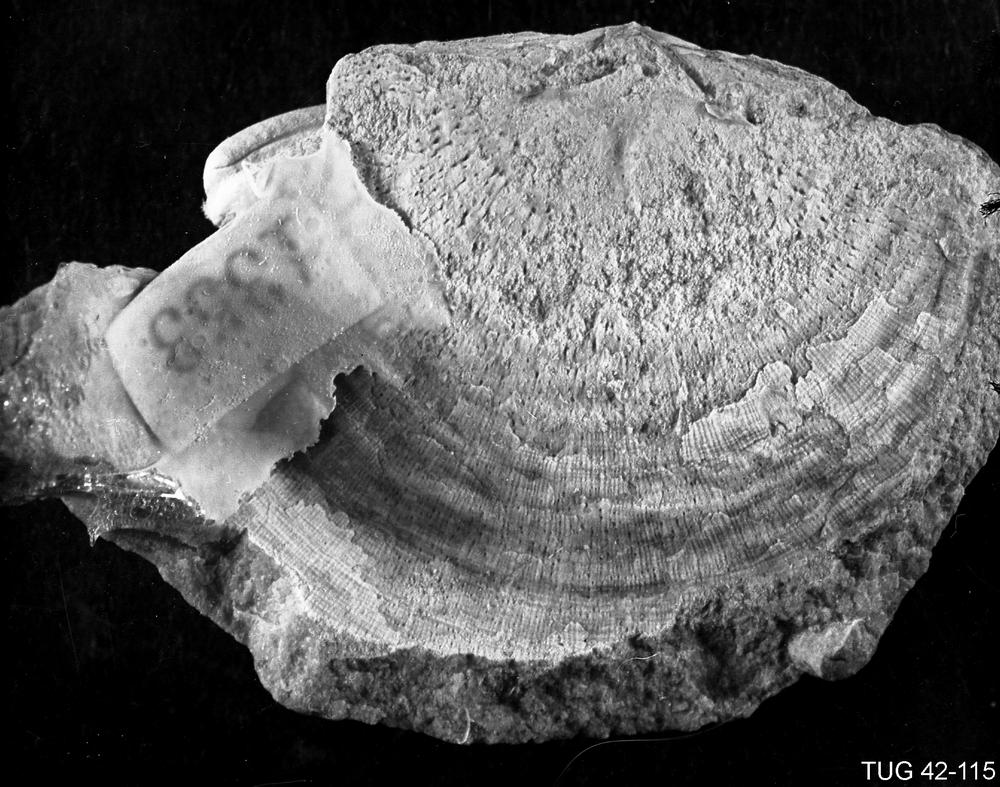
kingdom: Animalia
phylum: Brachiopoda
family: Rafinesquinidae
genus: Kiaeromena
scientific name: Kiaeromena
